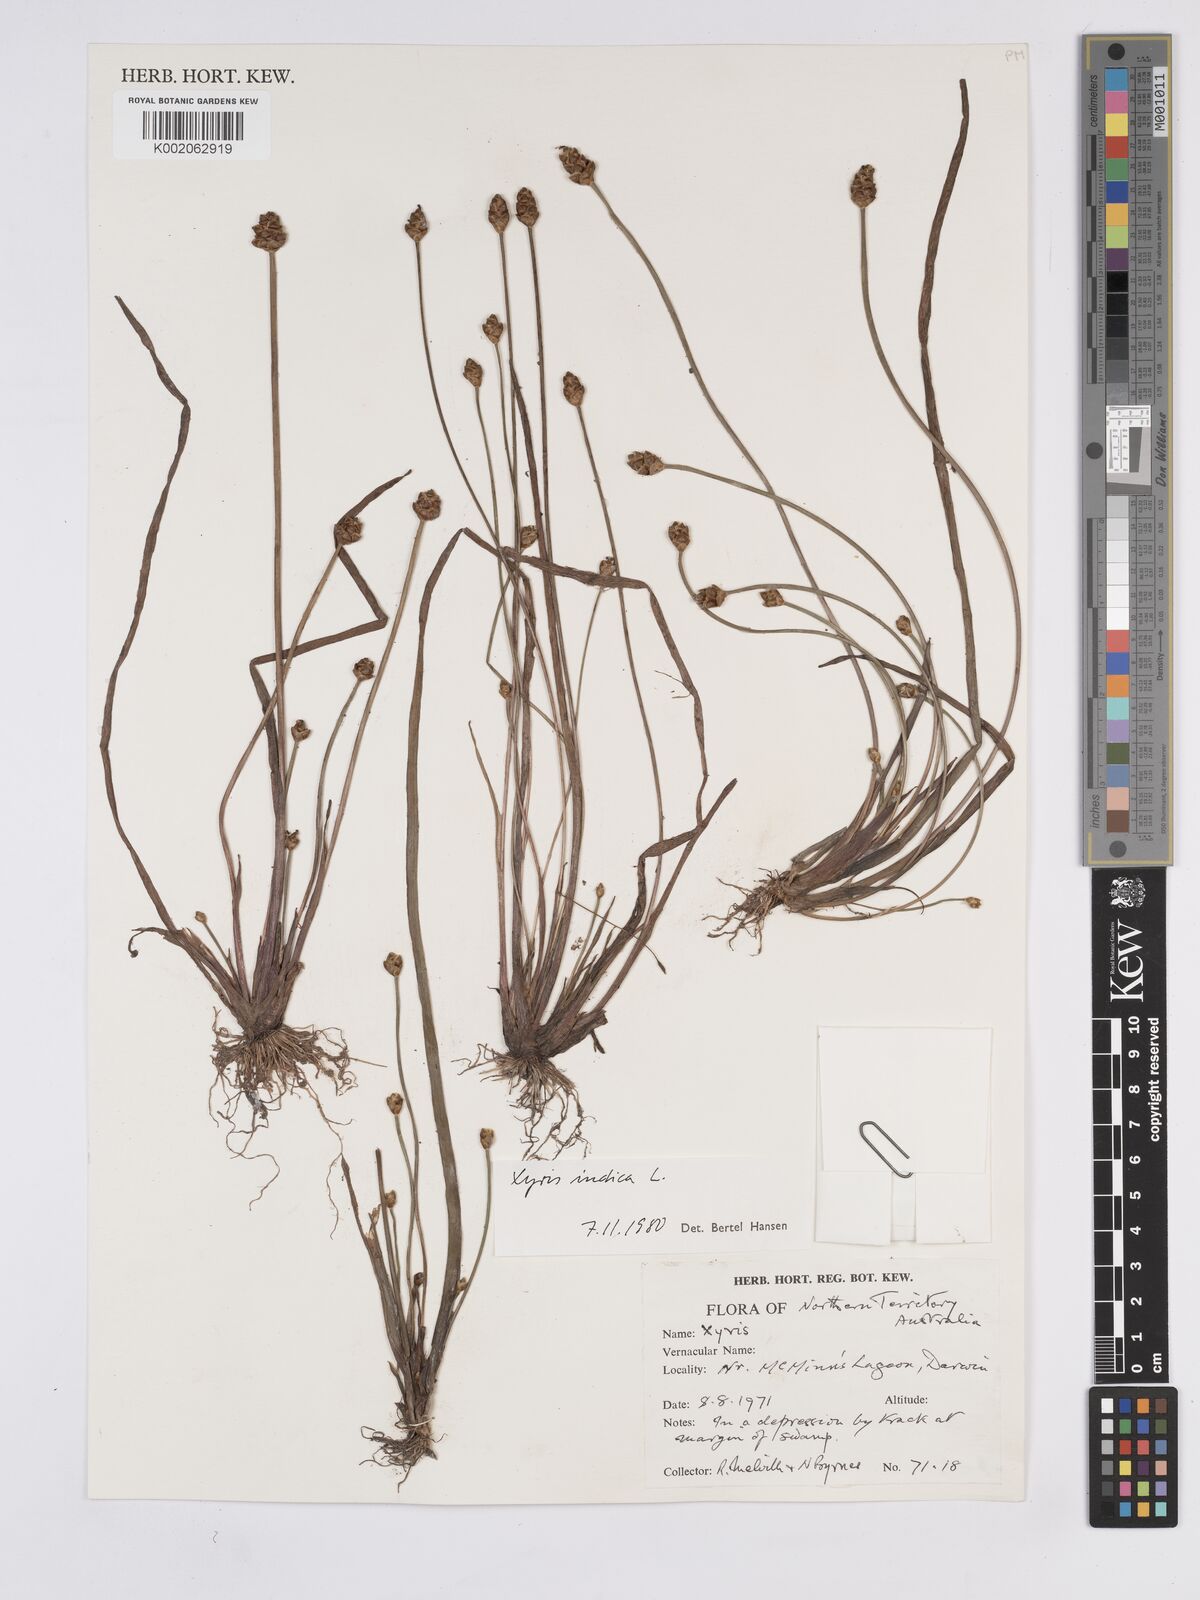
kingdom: Plantae
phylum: Tracheophyta
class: Liliopsida
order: Poales
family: Xyridaceae
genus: Xyris
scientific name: Xyris indica
